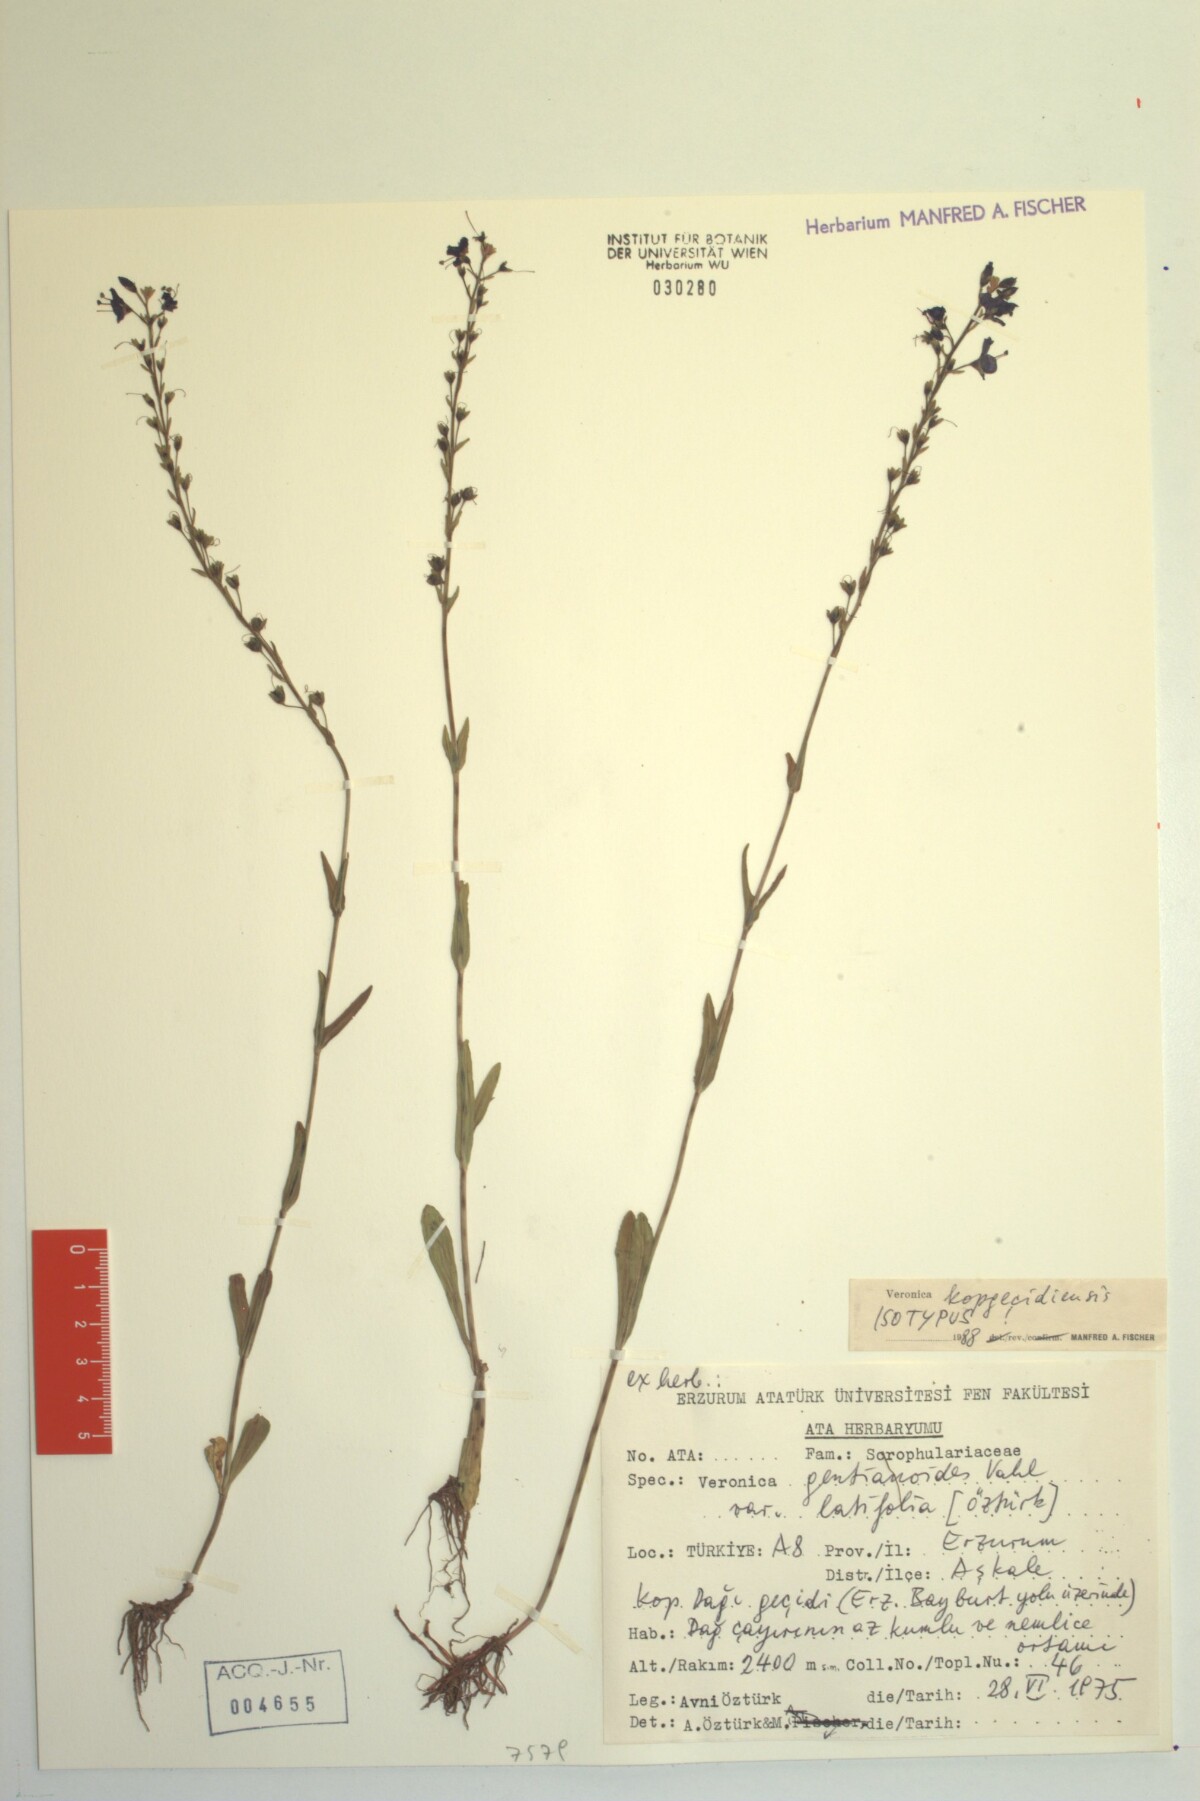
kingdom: Plantae
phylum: Tracheophyta
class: Magnoliopsida
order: Lamiales
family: Plantaginaceae
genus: Veronica
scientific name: Veronica kopgecidiensis
